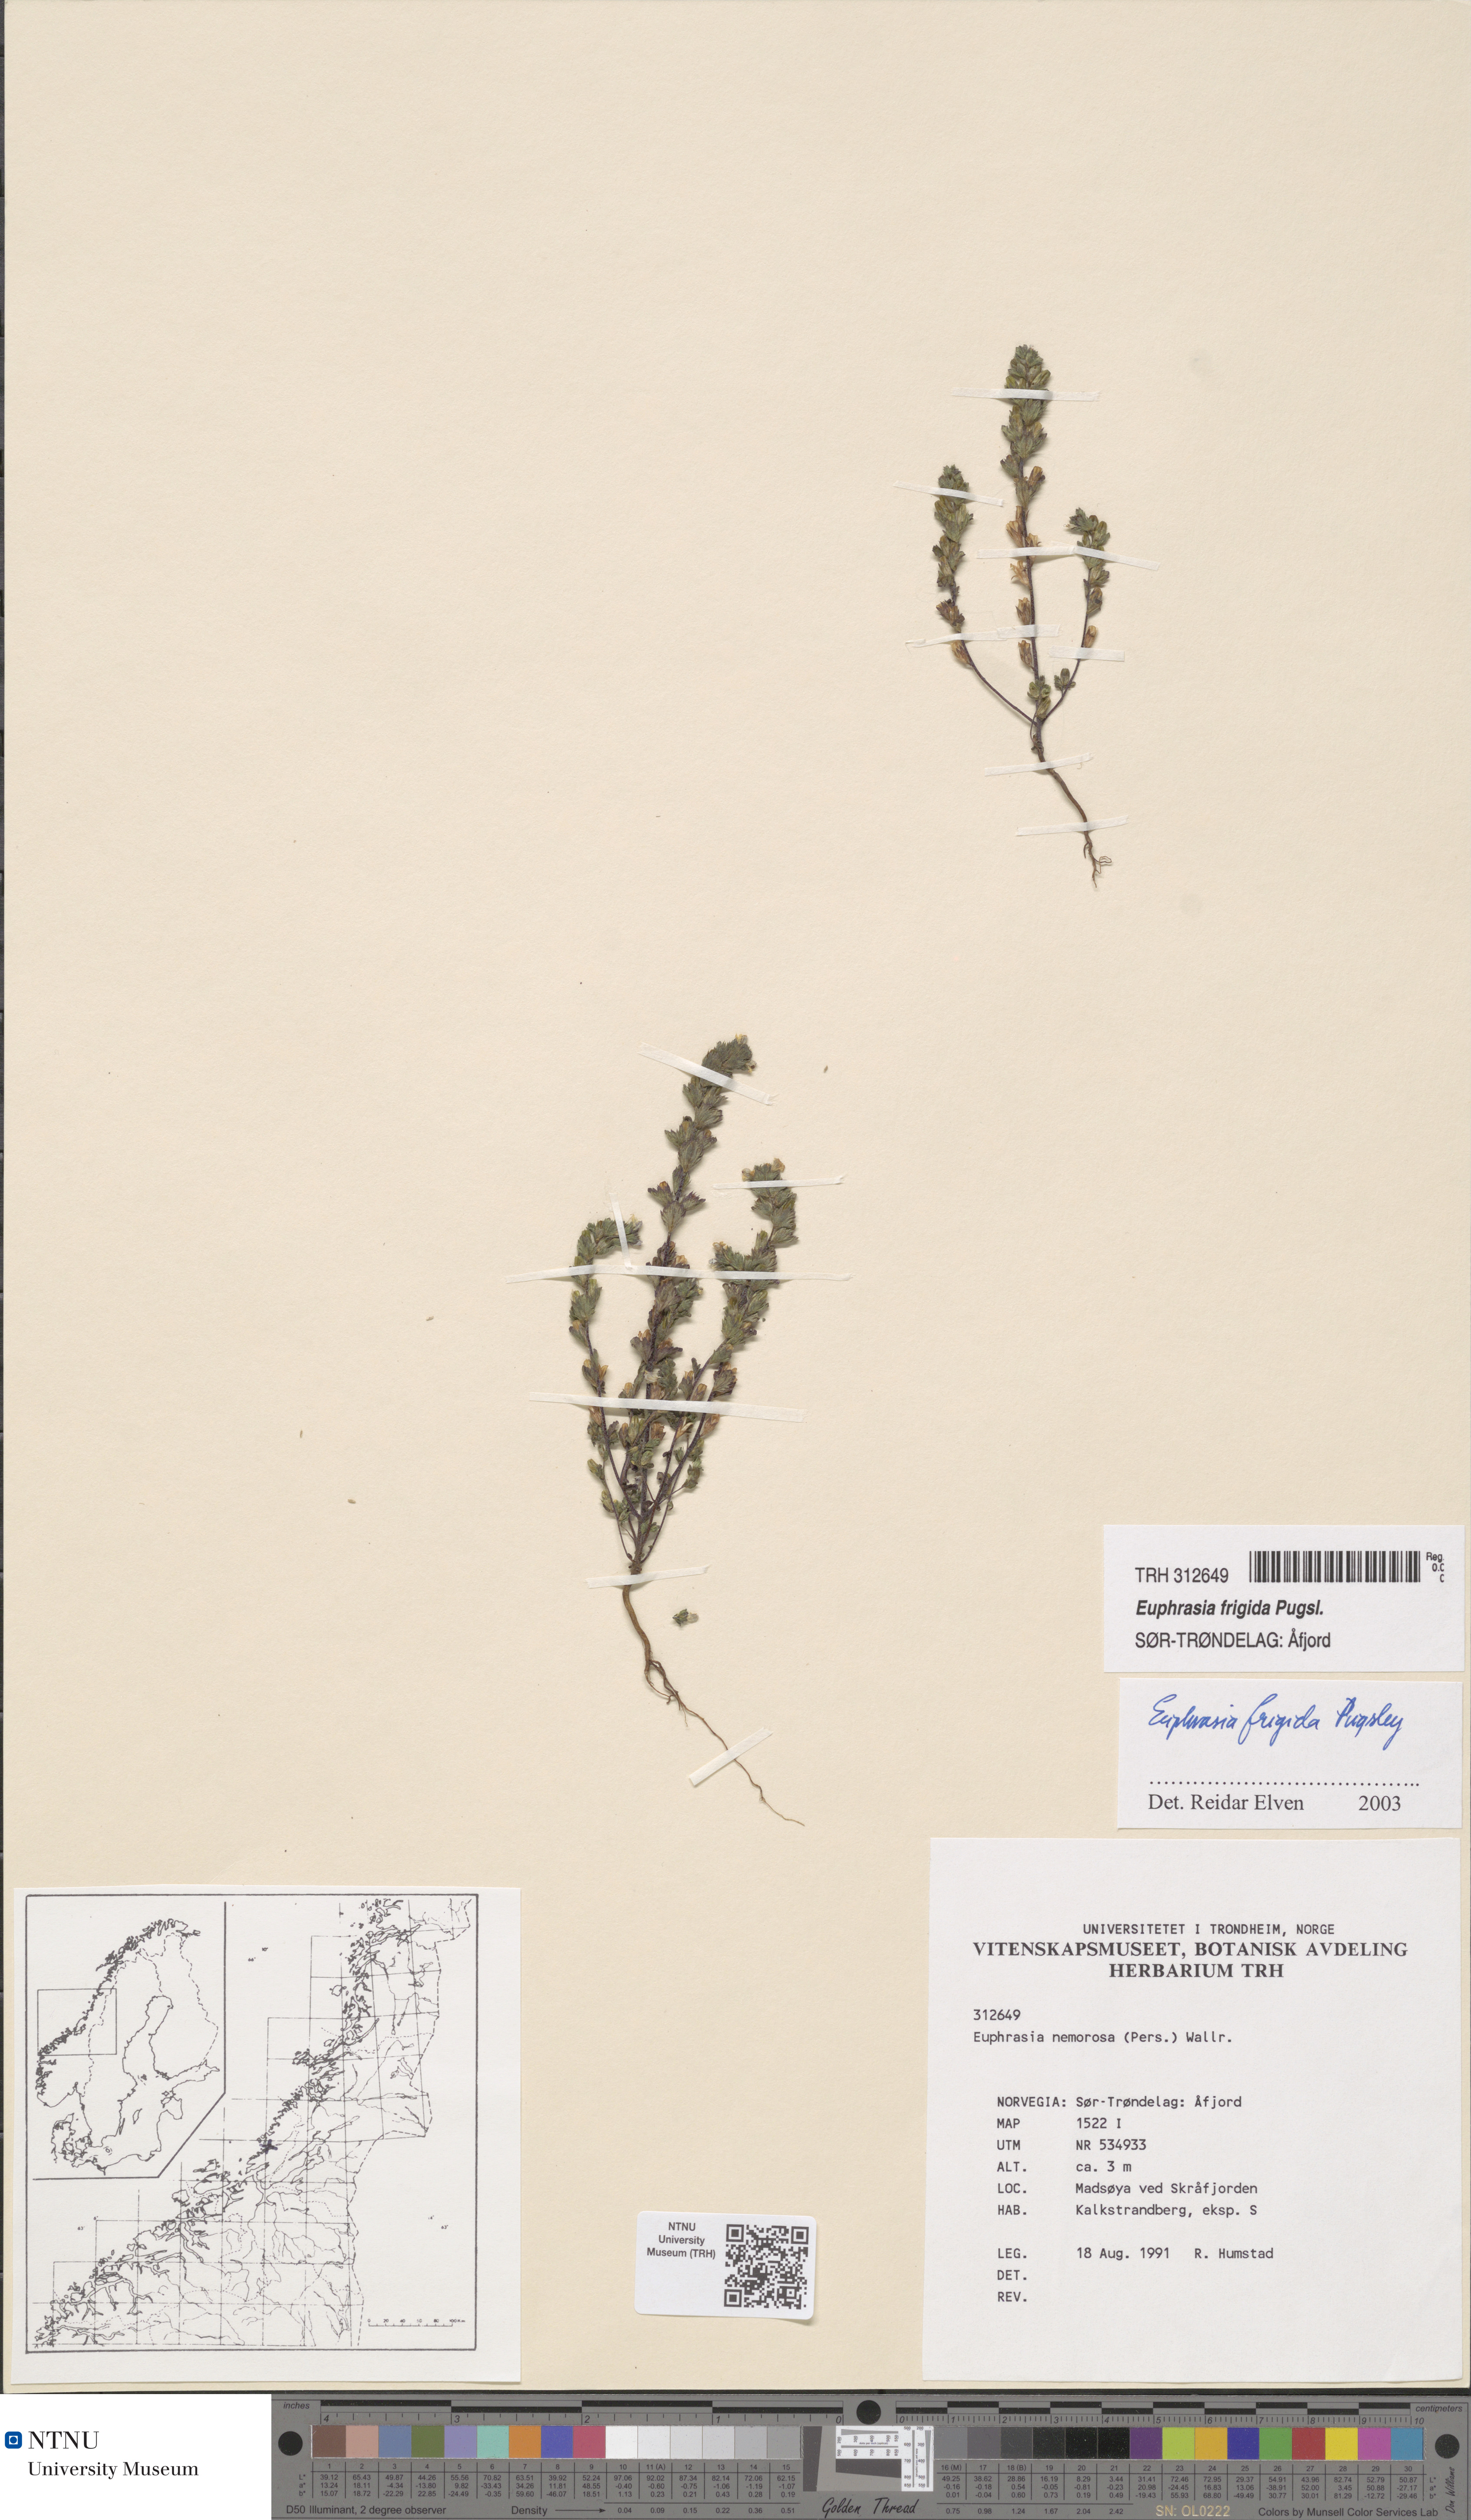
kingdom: Plantae
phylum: Tracheophyta
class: Magnoliopsida
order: Lamiales
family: Orobanchaceae
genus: Euphrasia
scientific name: Euphrasia wettsteinii
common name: Wettstein's eyebright
